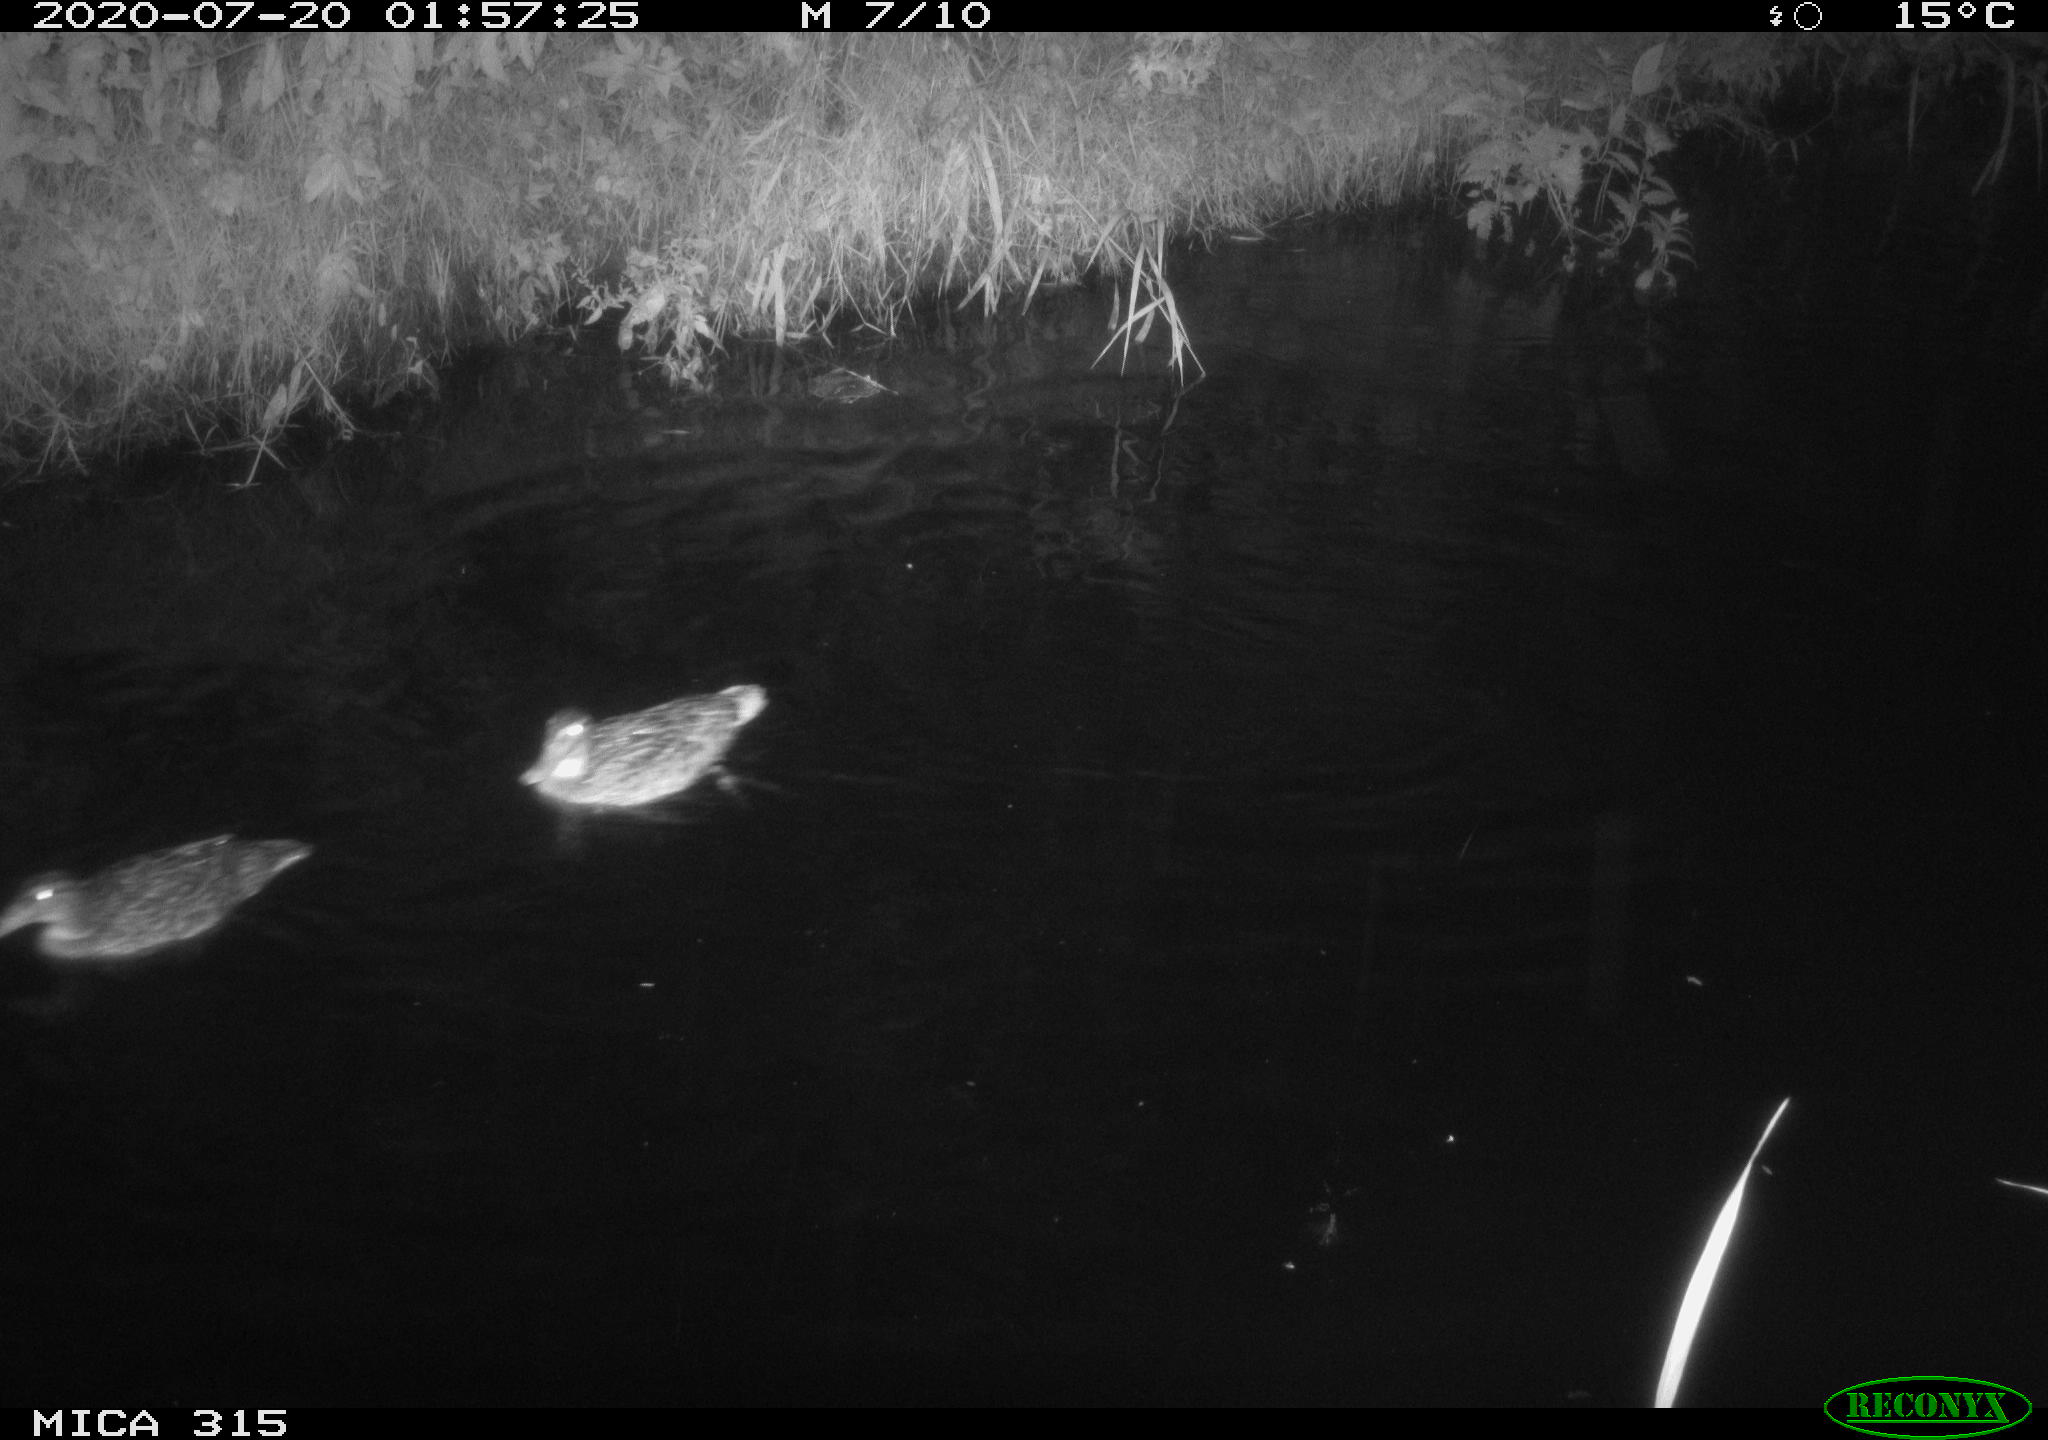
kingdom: Animalia
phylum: Chordata
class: Aves
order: Anseriformes
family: Anatidae
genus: Aix
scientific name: Aix galericulata
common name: Mandarin duck
